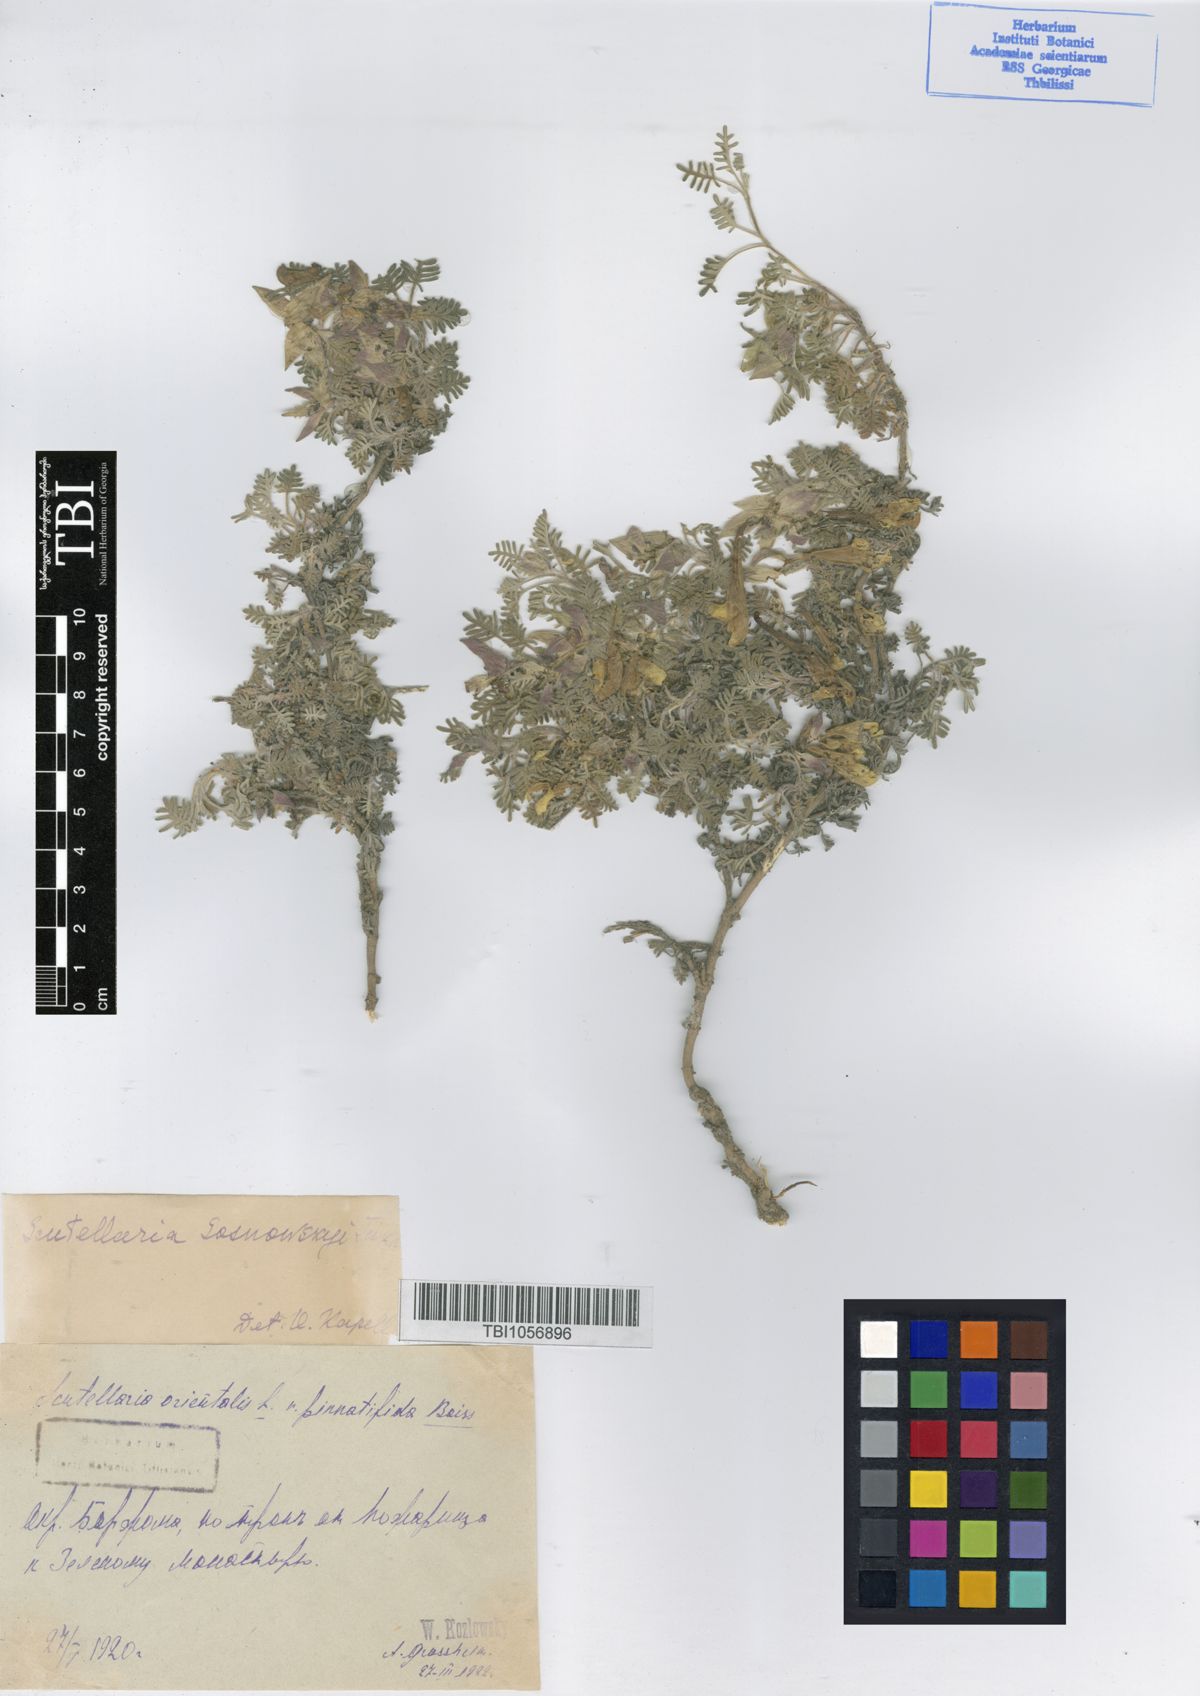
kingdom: Plantae
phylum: Tracheophyta
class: Magnoliopsida
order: Lamiales
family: Lamiaceae
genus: Scutellaria
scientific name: Scutellaria sosnowskyi
